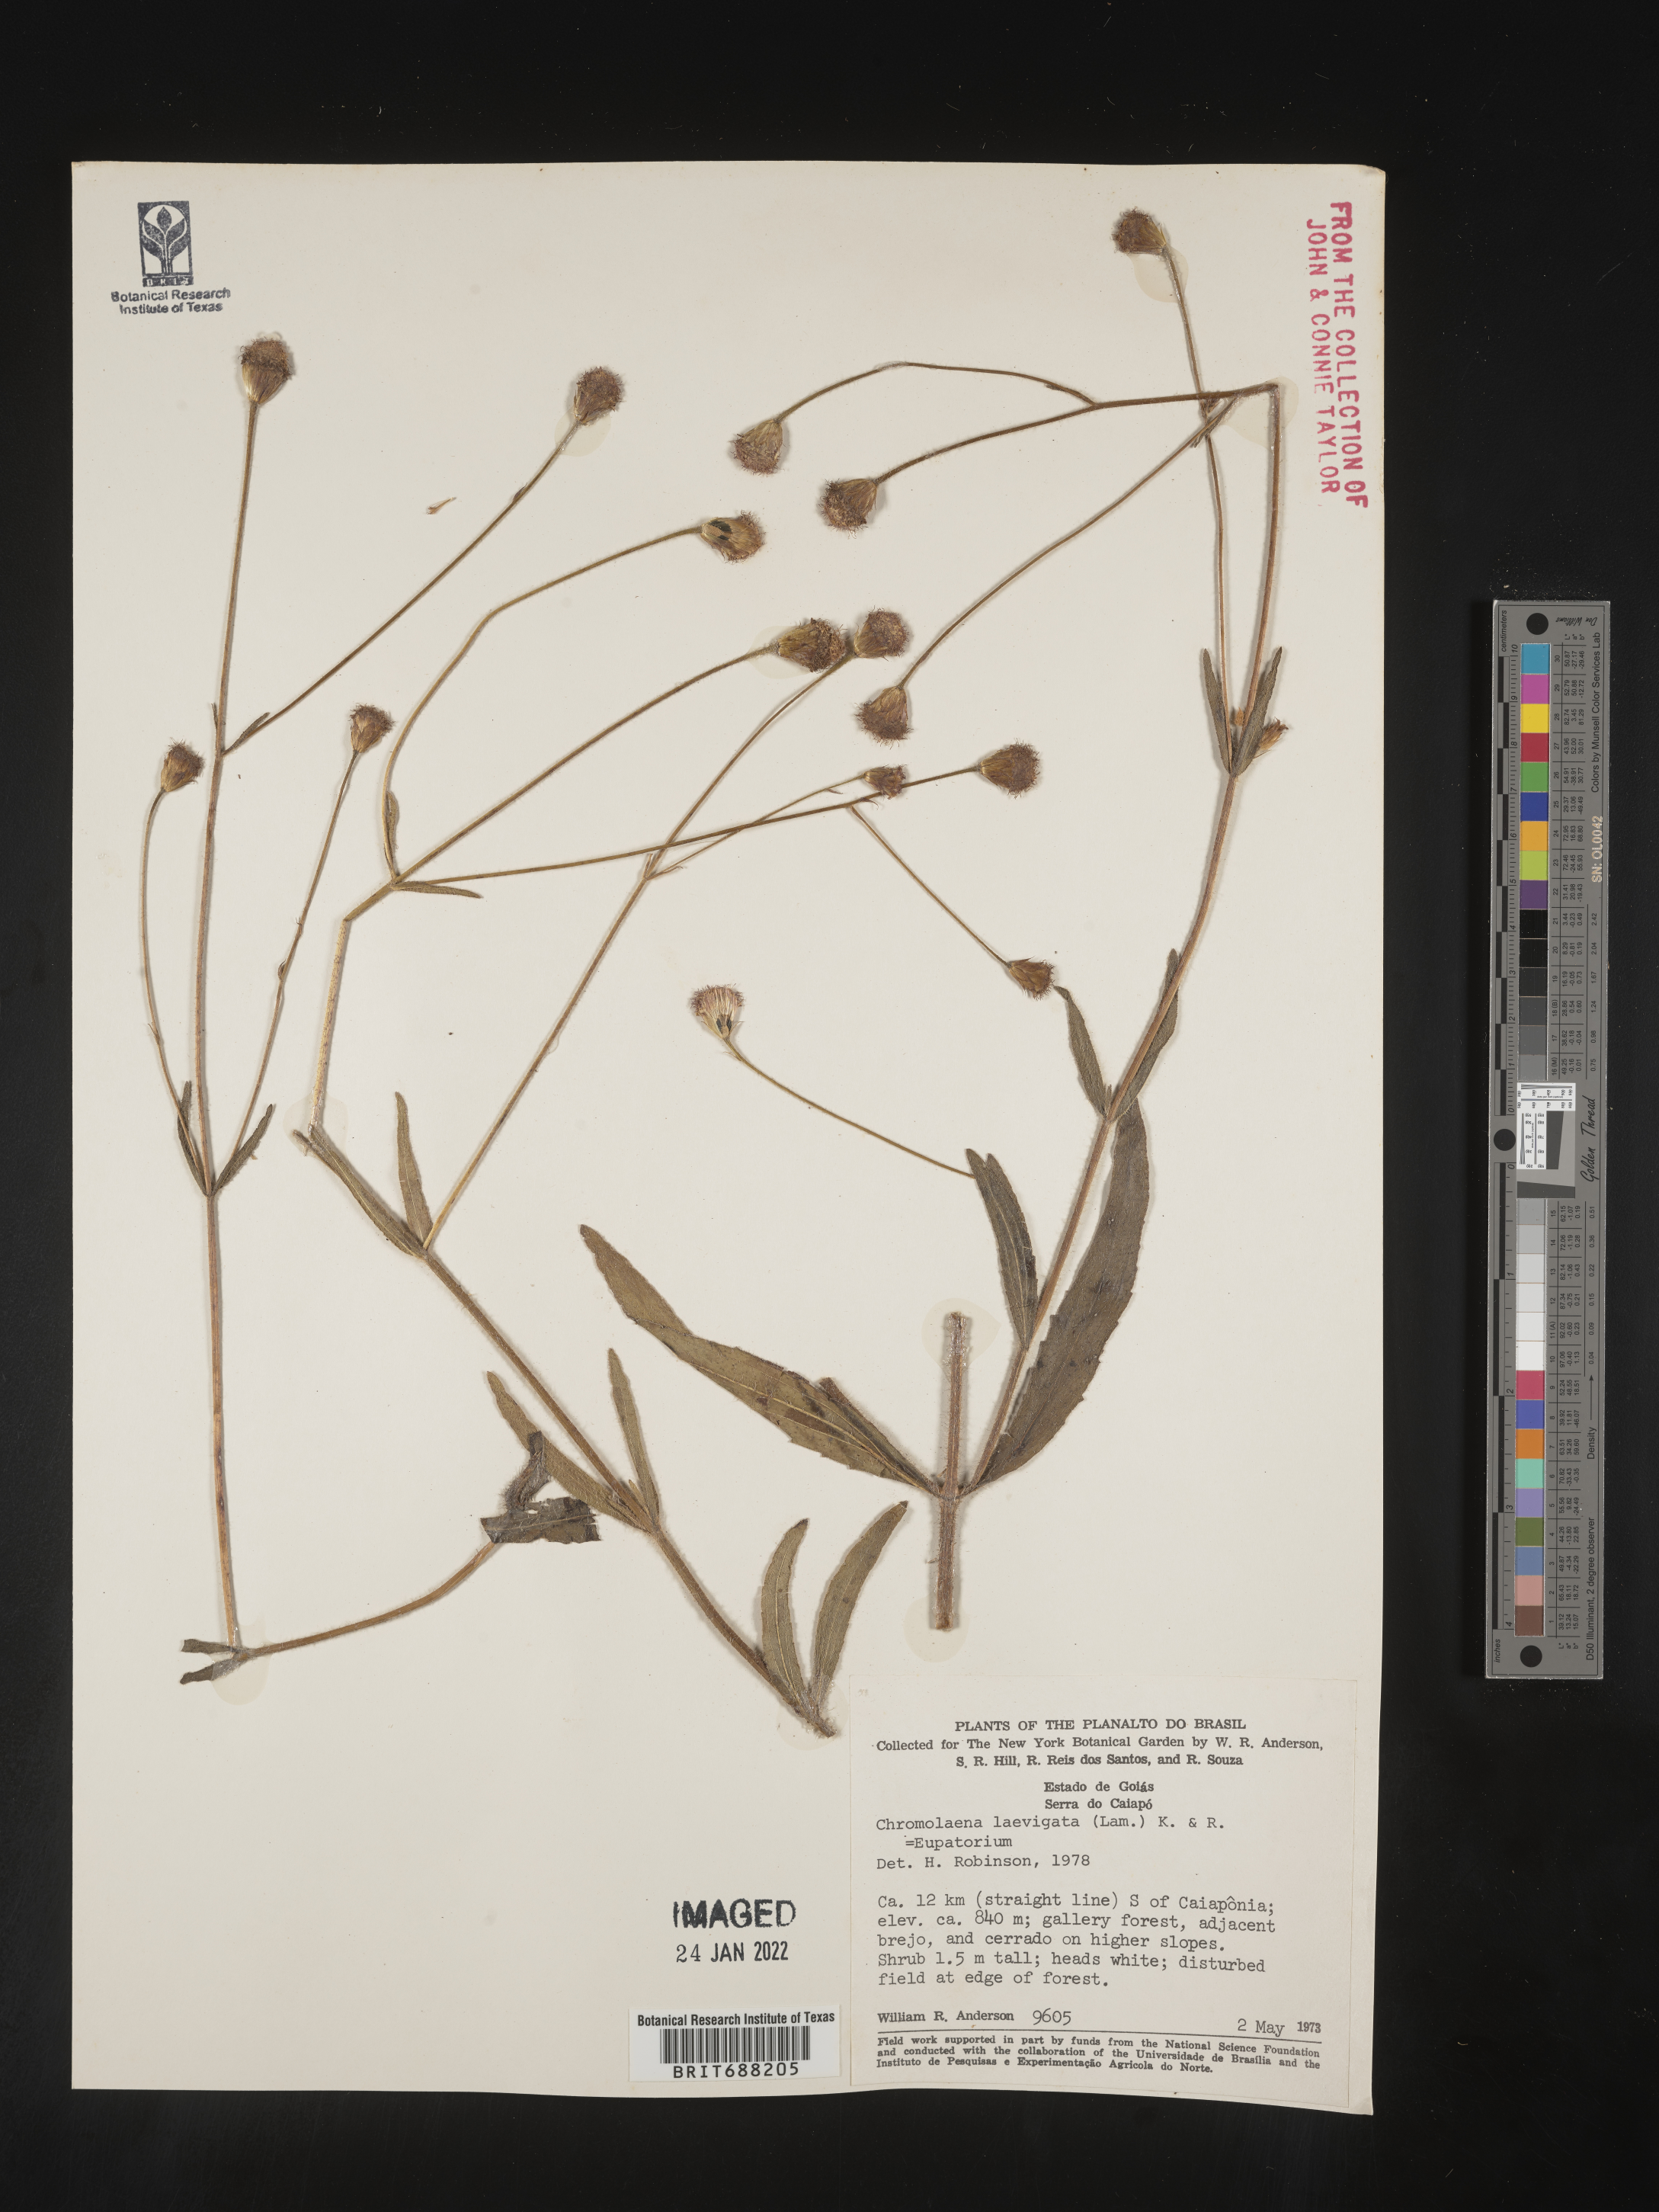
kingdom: Plantae
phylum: Tracheophyta
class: Magnoliopsida
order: Asterales
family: Asteraceae
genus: Chromolaena
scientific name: Chromolaena
